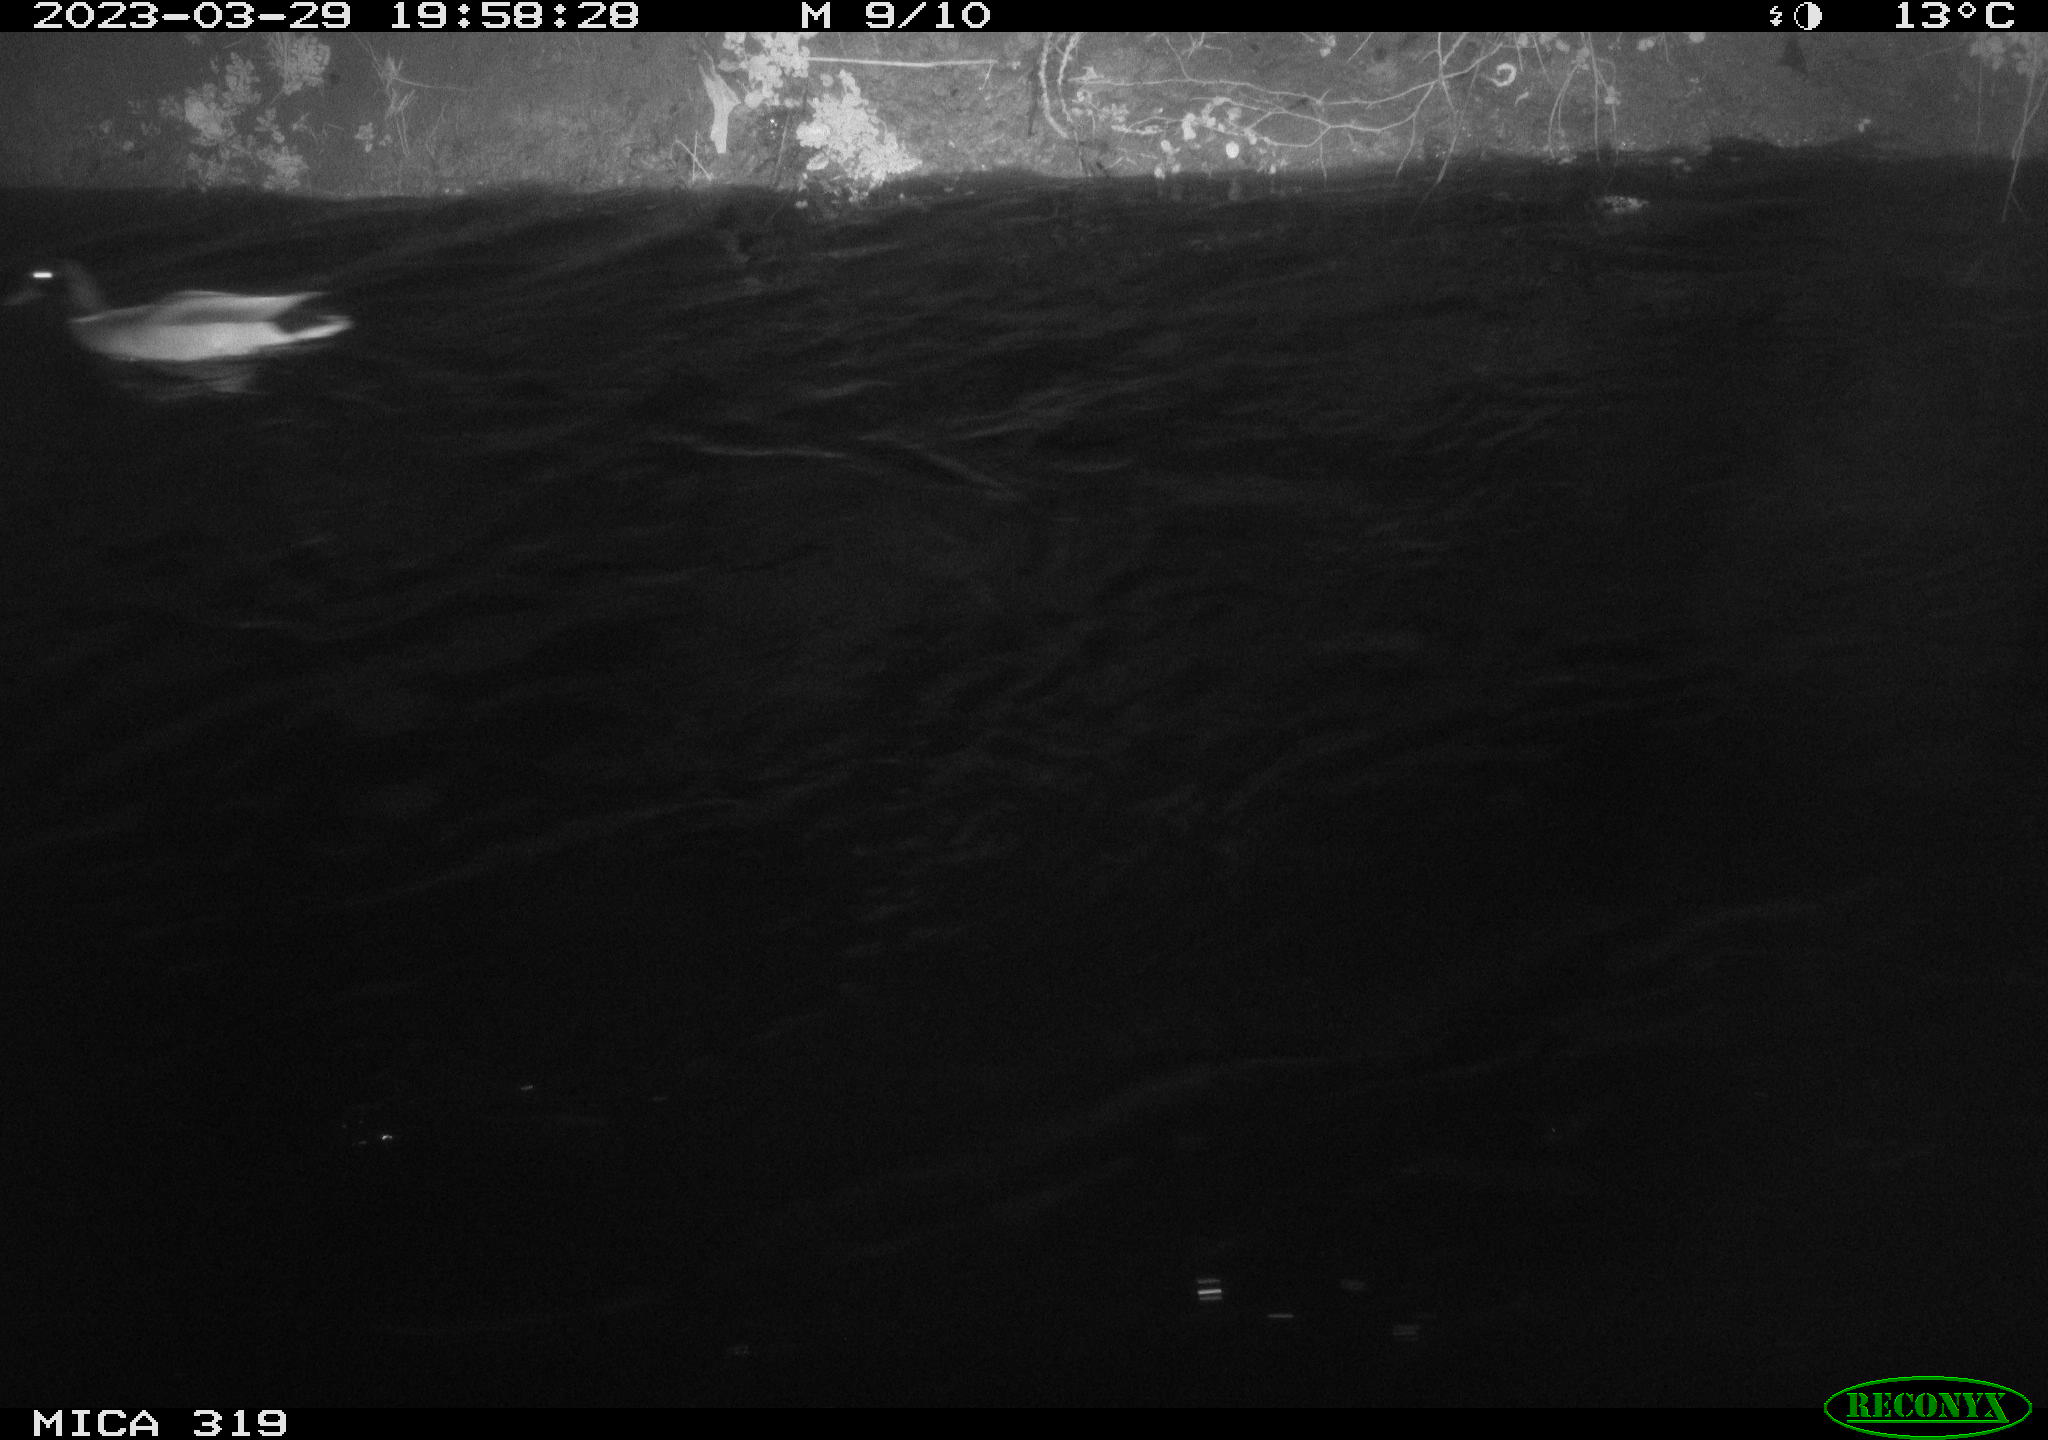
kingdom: Animalia
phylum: Chordata
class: Aves
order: Anseriformes
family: Anatidae
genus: Anas
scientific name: Anas
